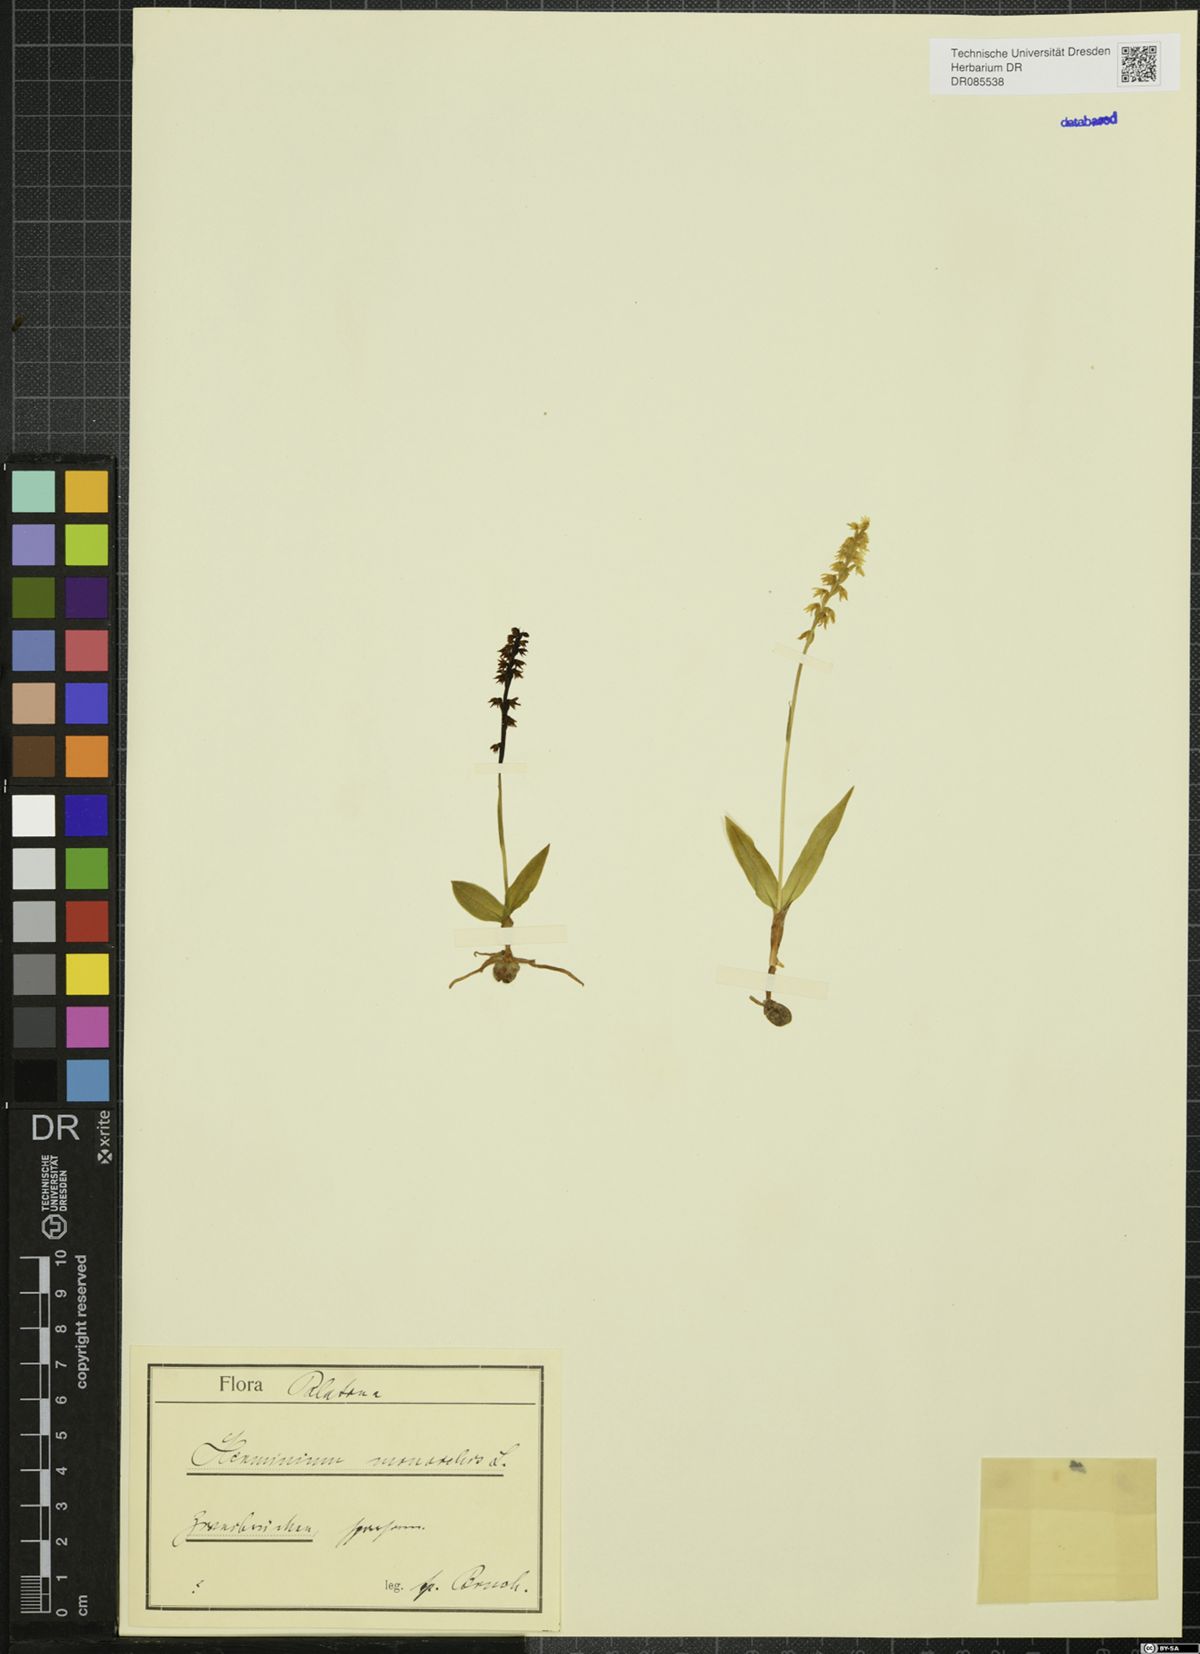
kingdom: Plantae
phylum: Tracheophyta
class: Liliopsida
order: Asparagales
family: Orchidaceae
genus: Herminium
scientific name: Herminium monorchis
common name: Musk orchid
